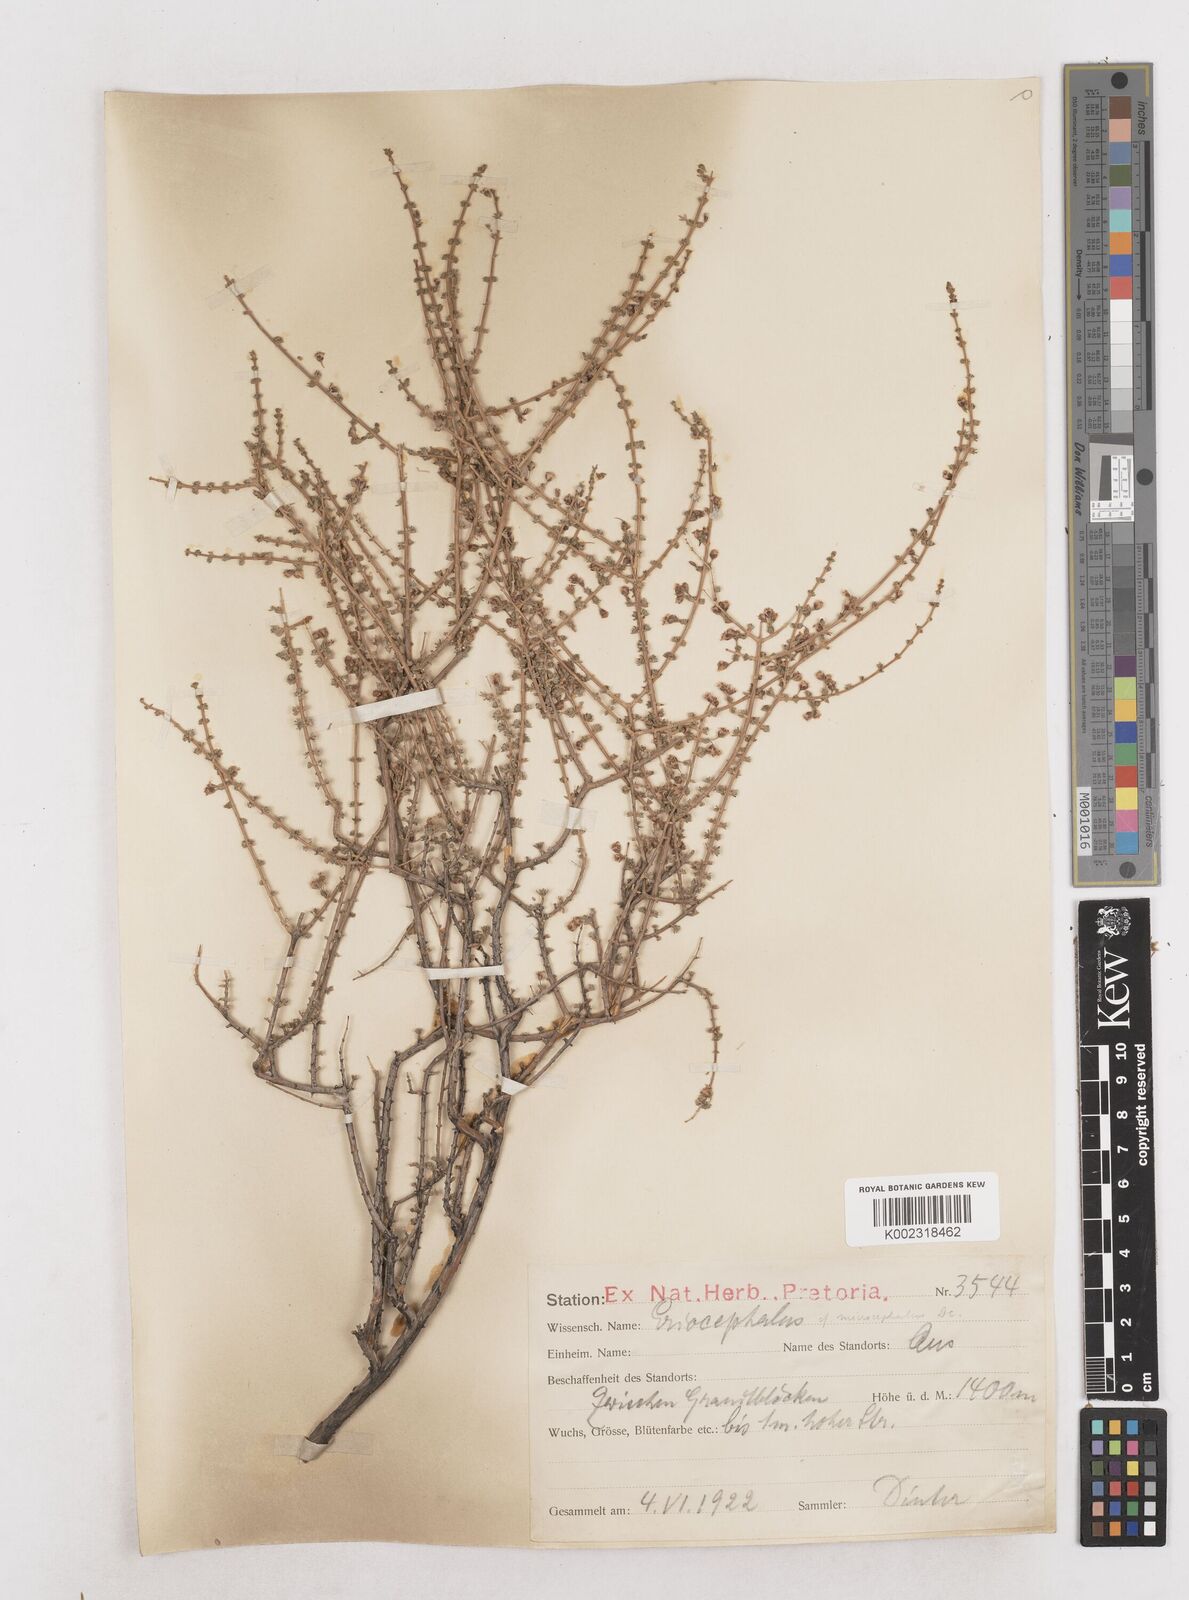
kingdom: Plantae
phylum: Tracheophyta
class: Magnoliopsida
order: Asterales
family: Asteraceae
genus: Eriocephalus
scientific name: Eriocephalus
